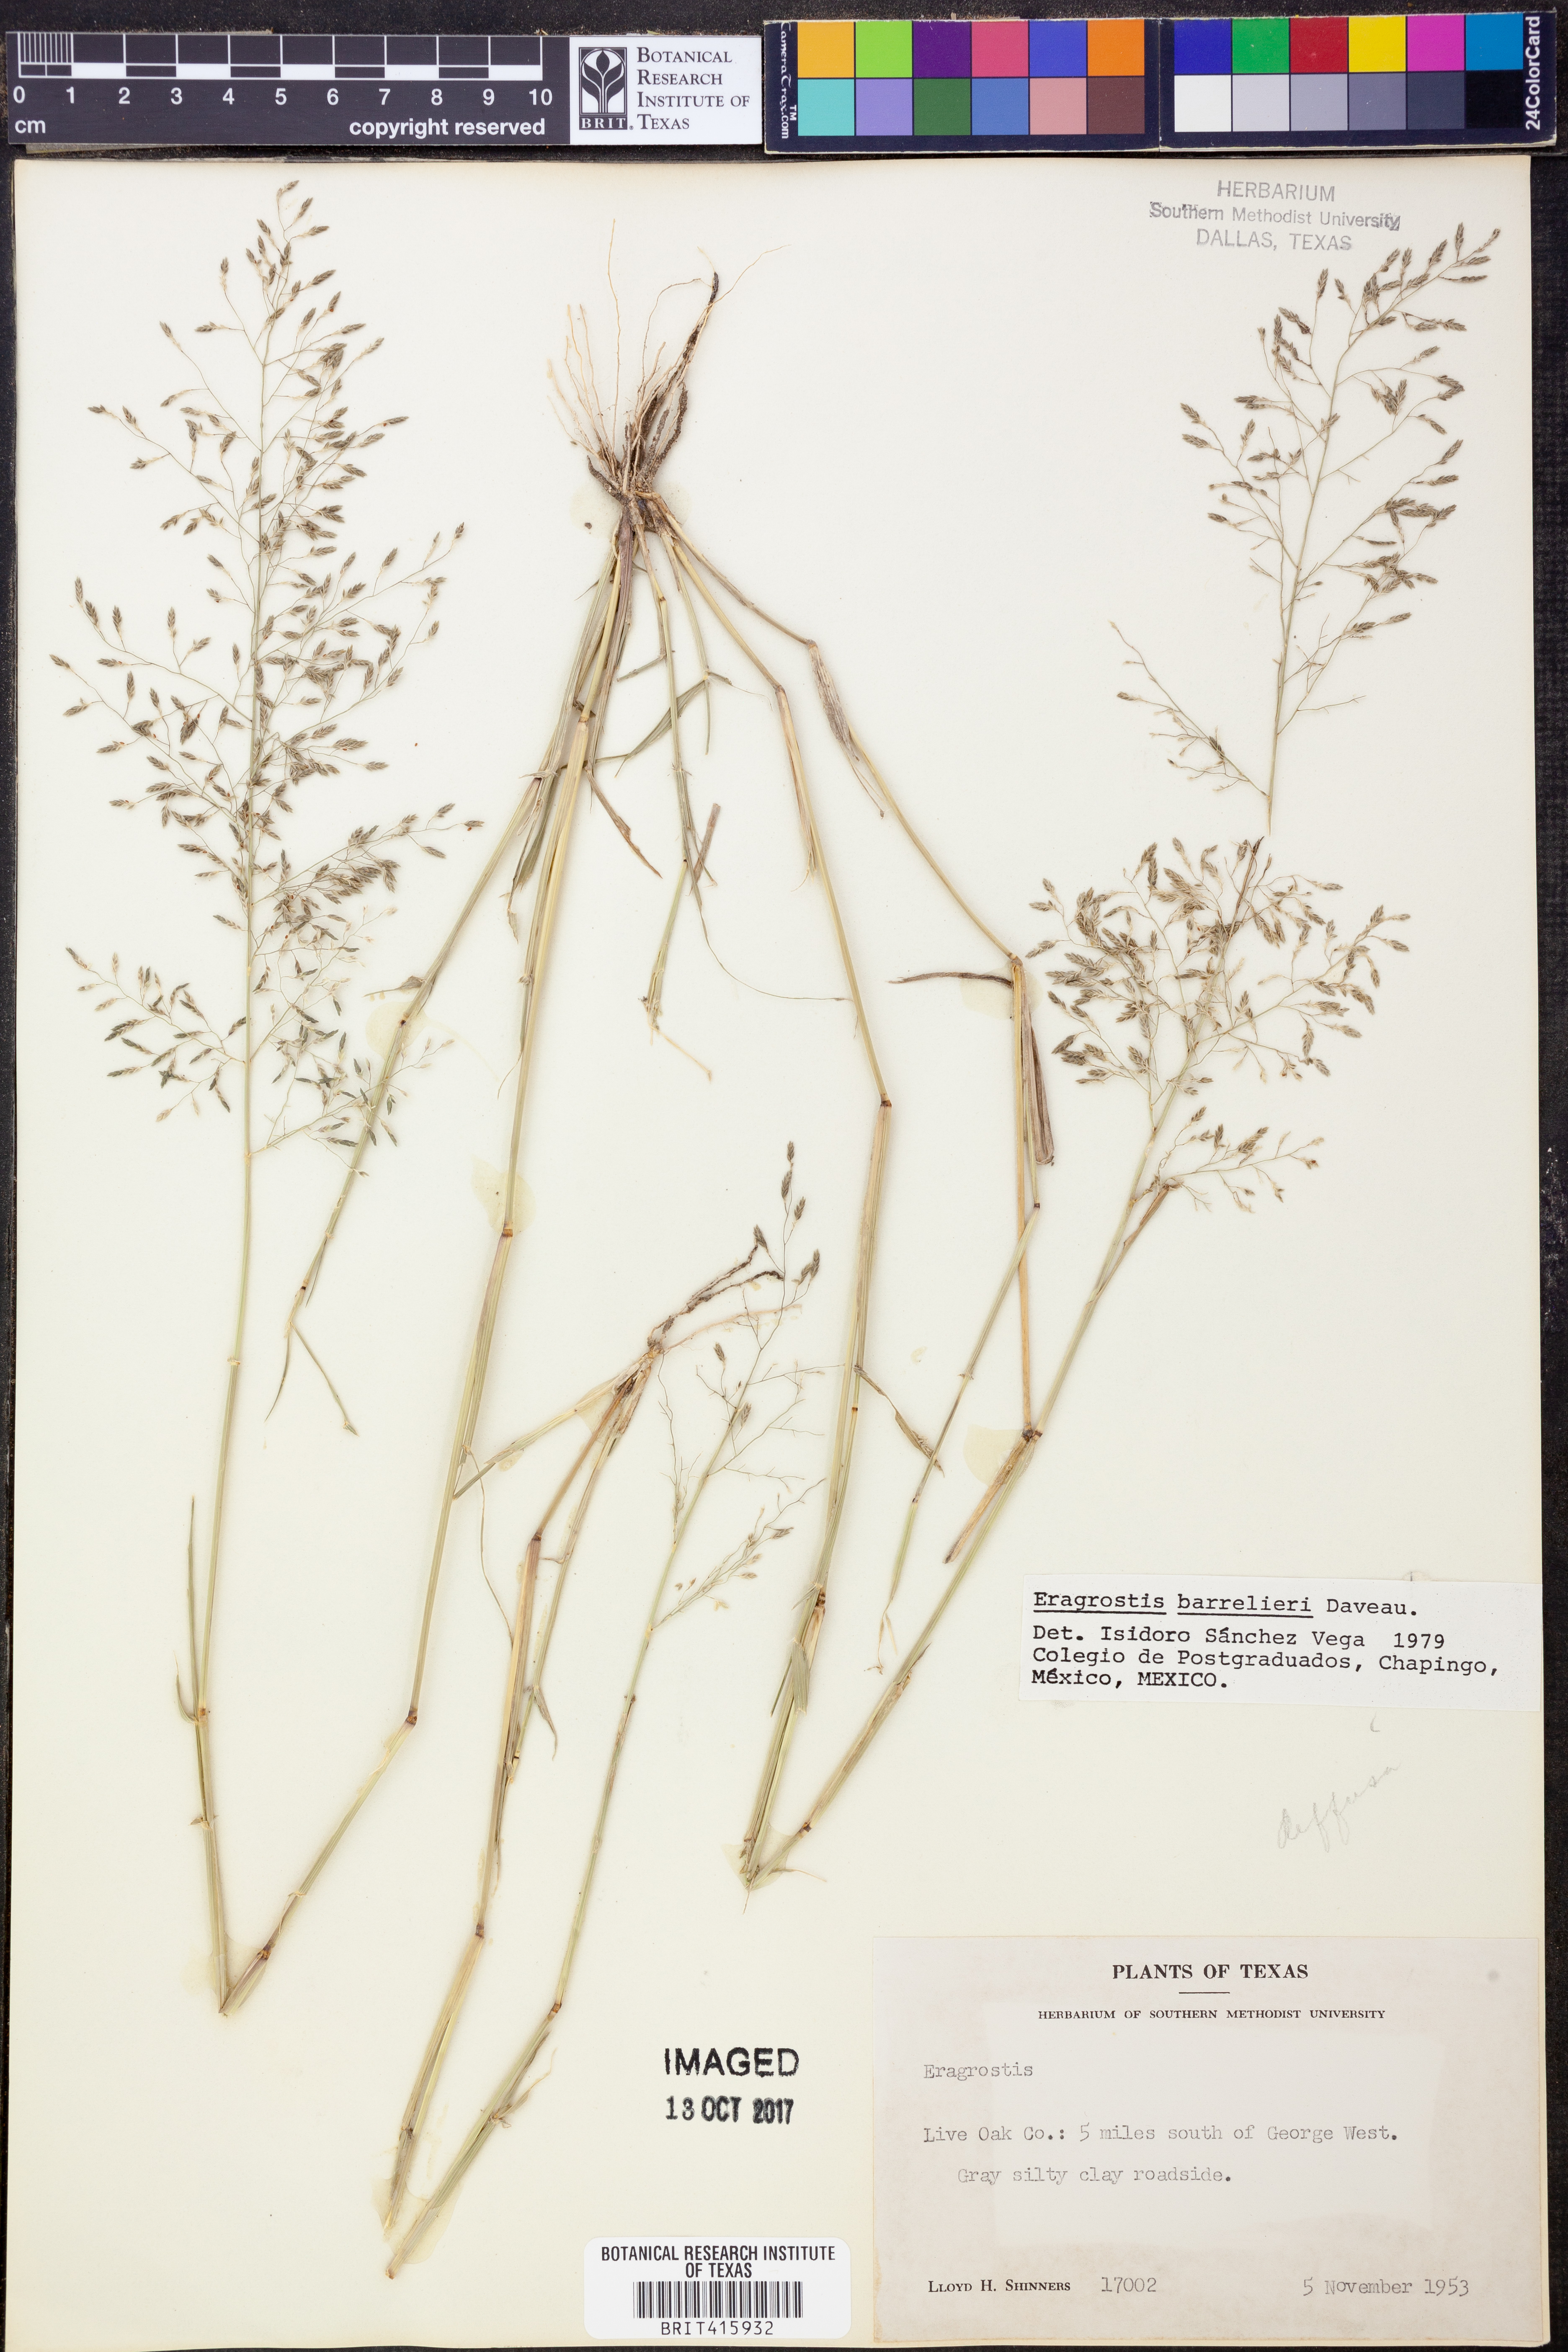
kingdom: Plantae
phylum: Tracheophyta
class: Liliopsida
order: Poales
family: Poaceae
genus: Eragrostis
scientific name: Eragrostis barrelieri
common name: Mediterranean lovegrass
